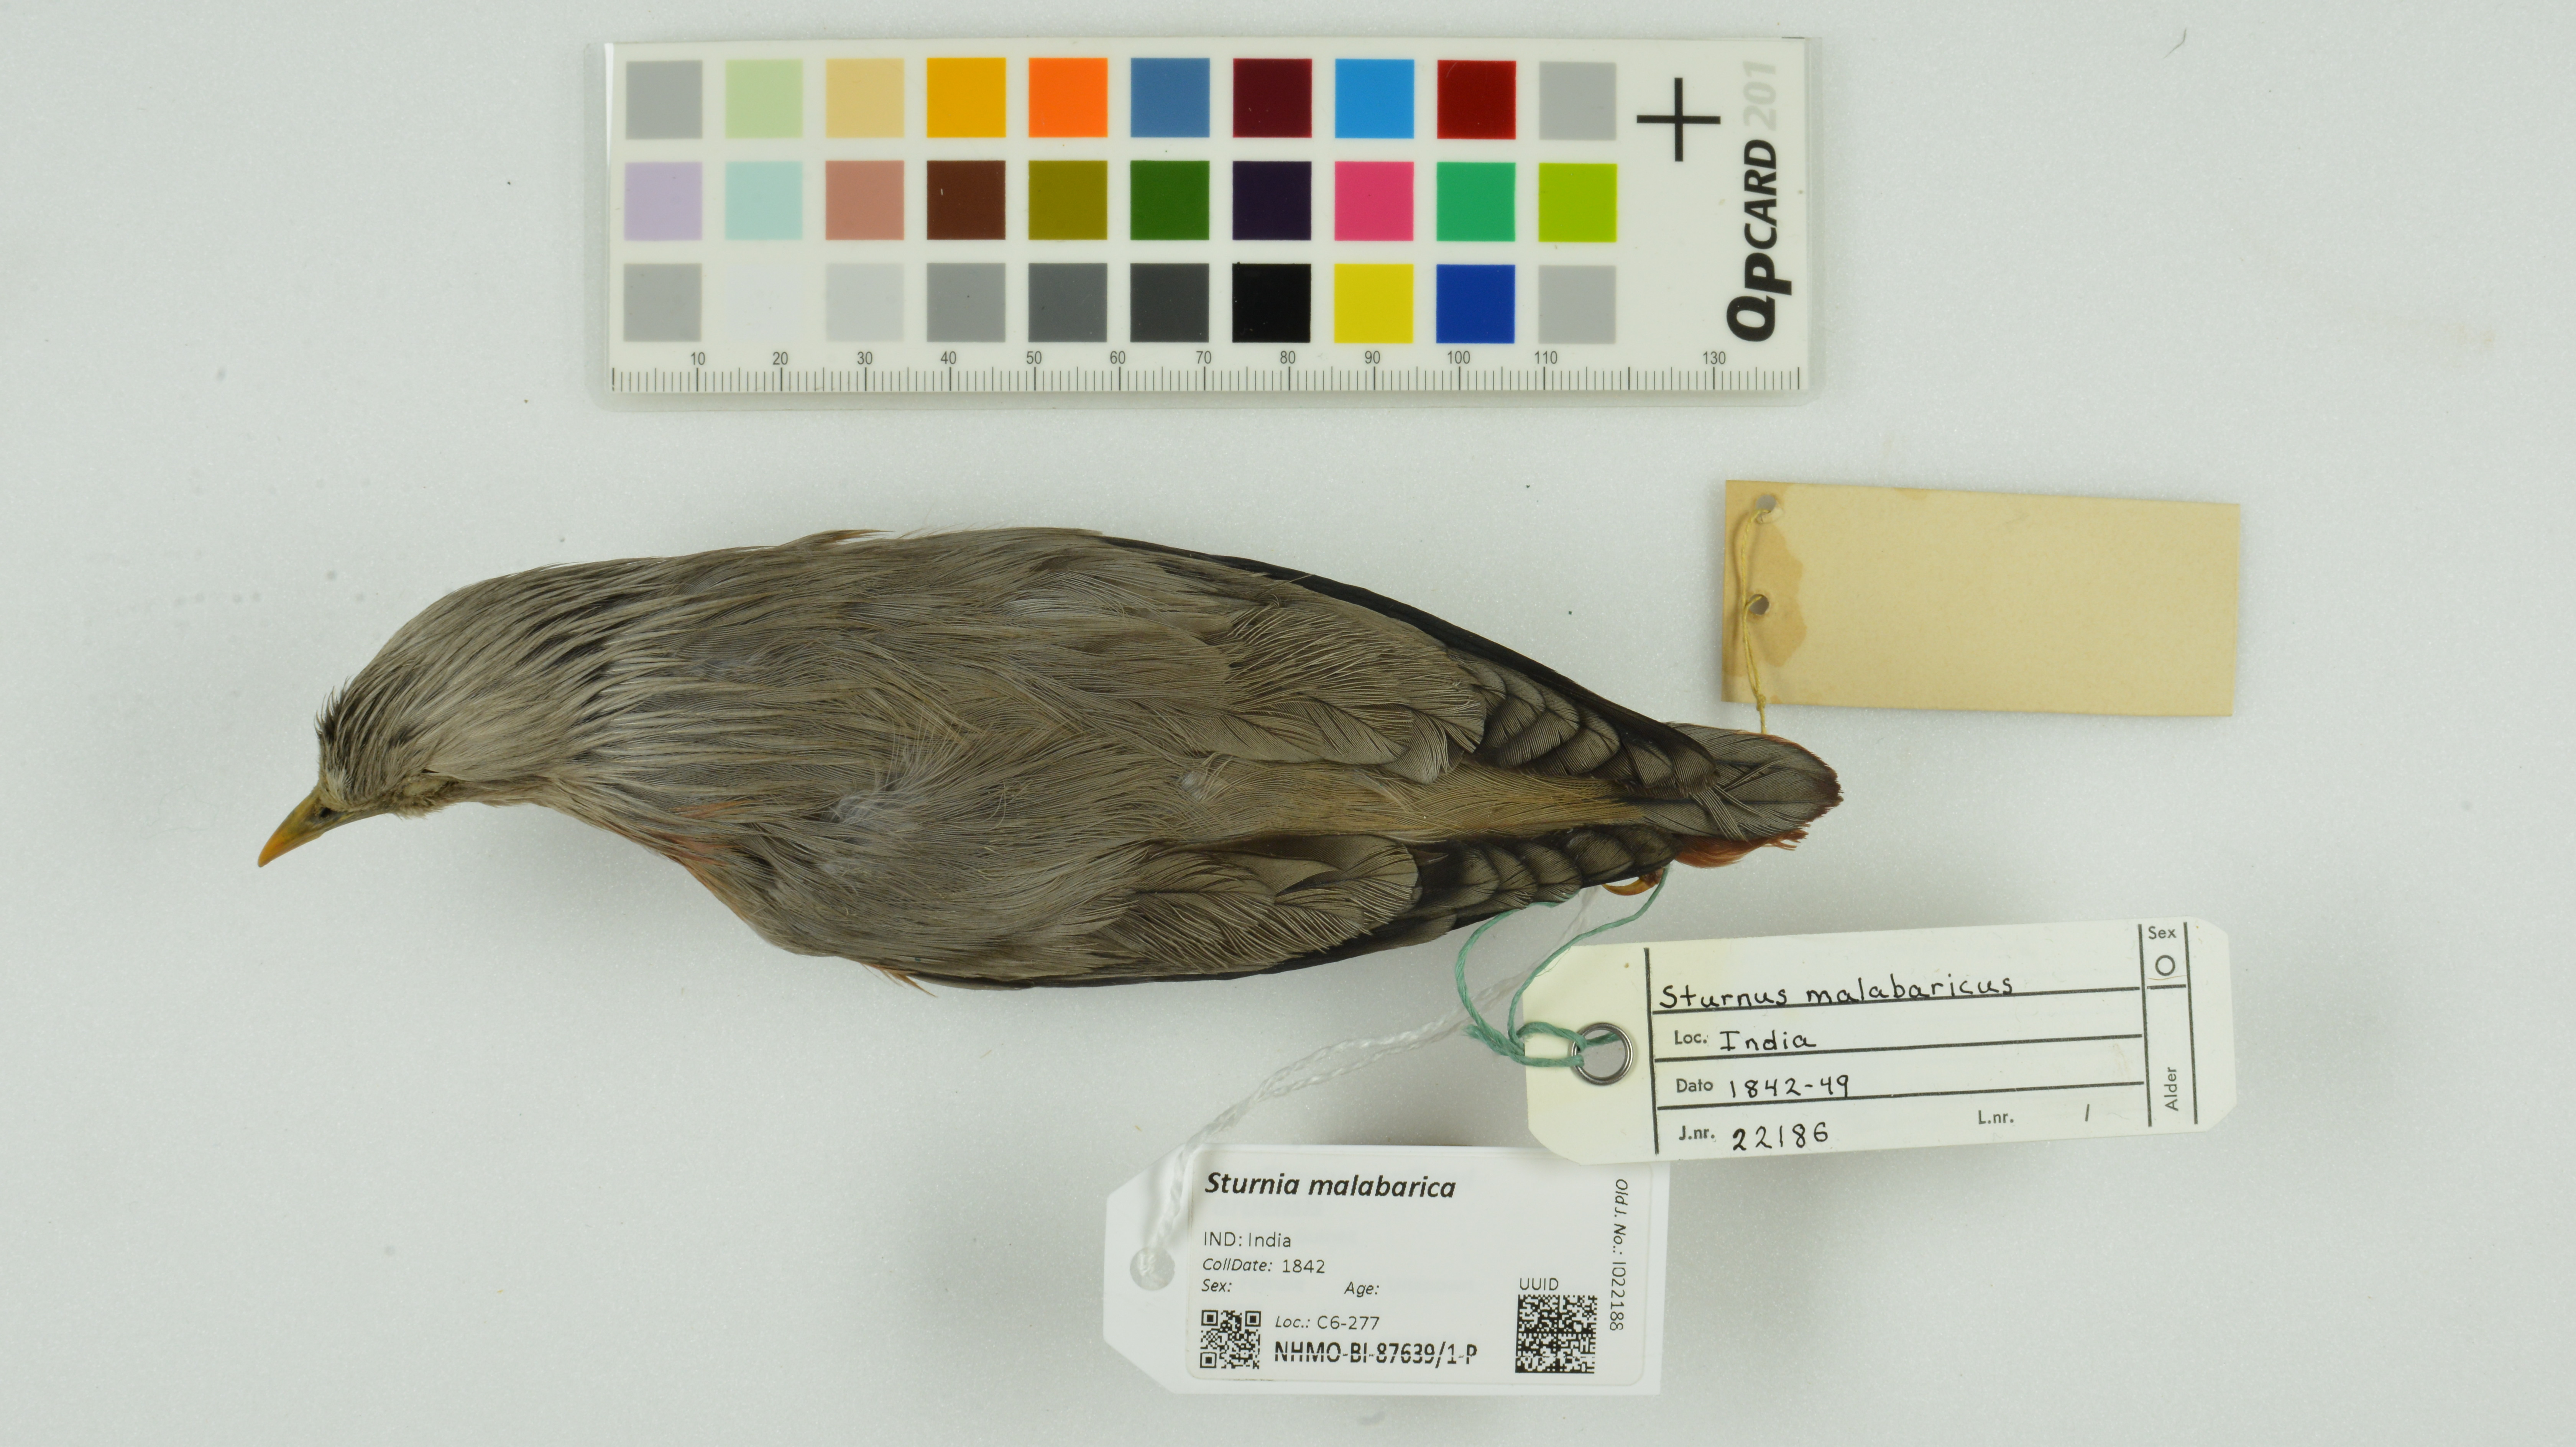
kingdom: Animalia
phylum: Chordata
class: Aves
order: Passeriformes
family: Sturnidae
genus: Sturnia
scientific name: Sturnia malabarica
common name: Chestnut-tailed starling
